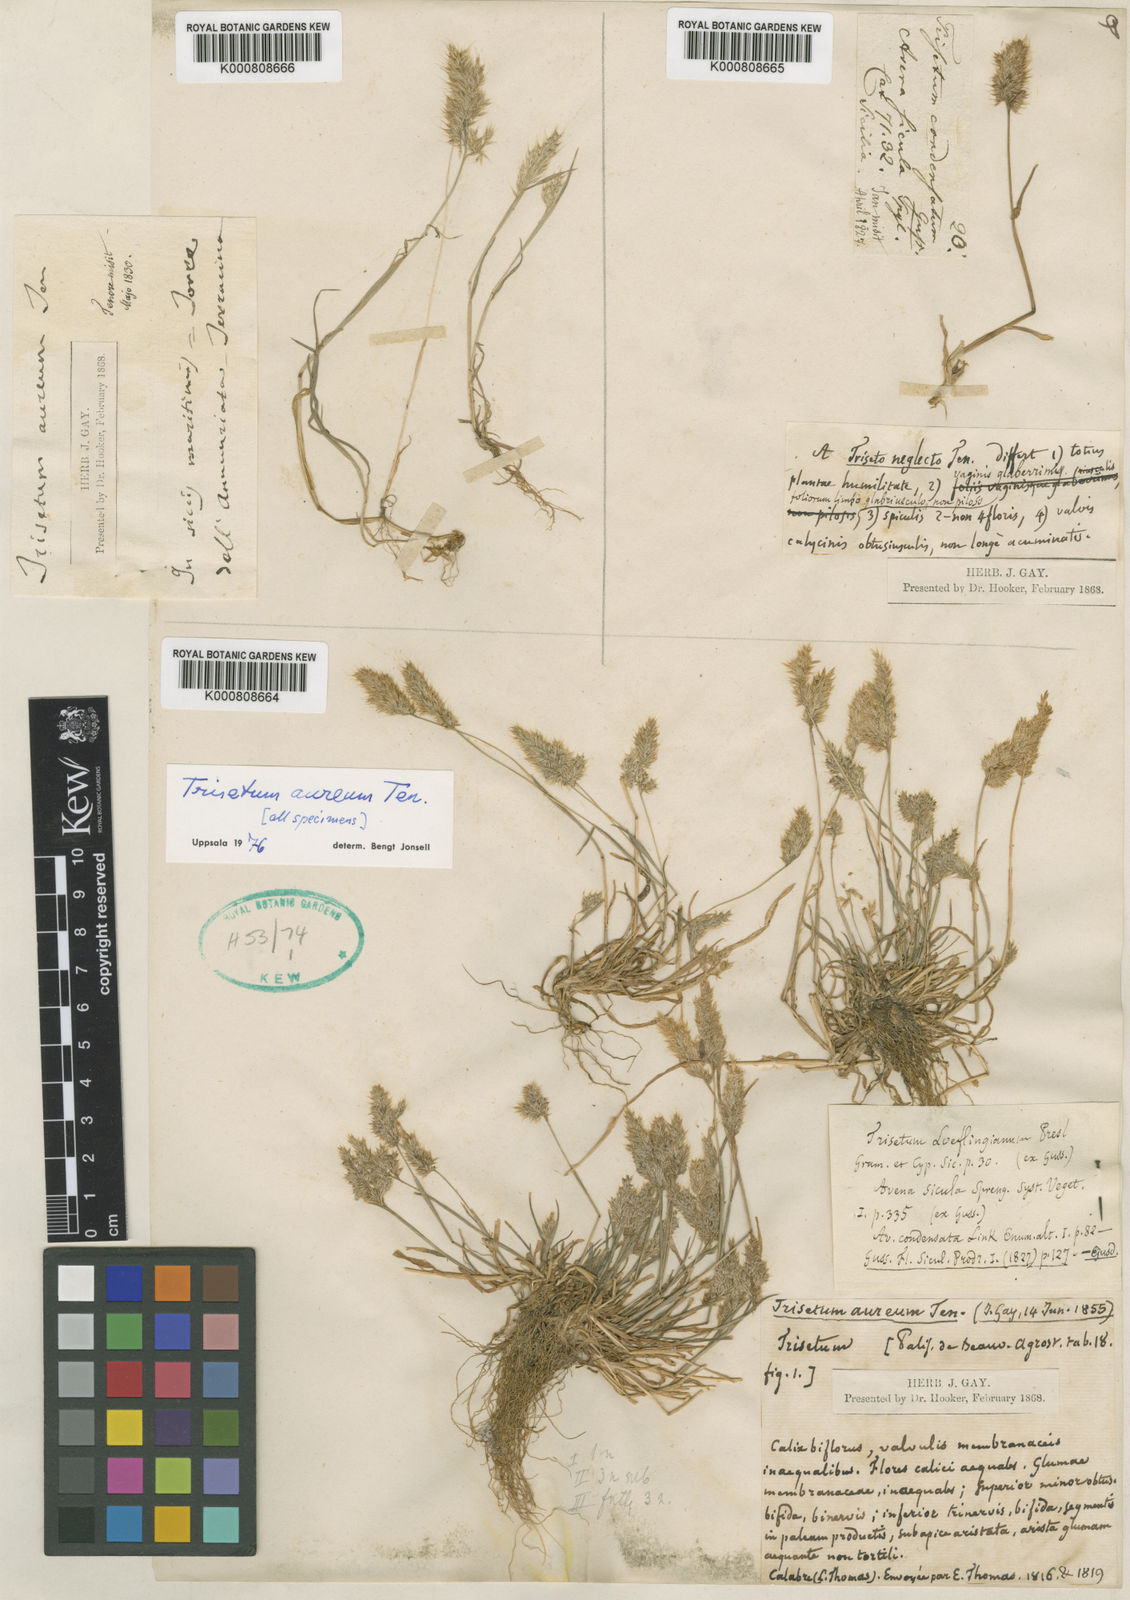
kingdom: Plantae
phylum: Tracheophyta
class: Liliopsida
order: Poales
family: Poaceae
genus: Trisetaria
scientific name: Trisetaria aurea
